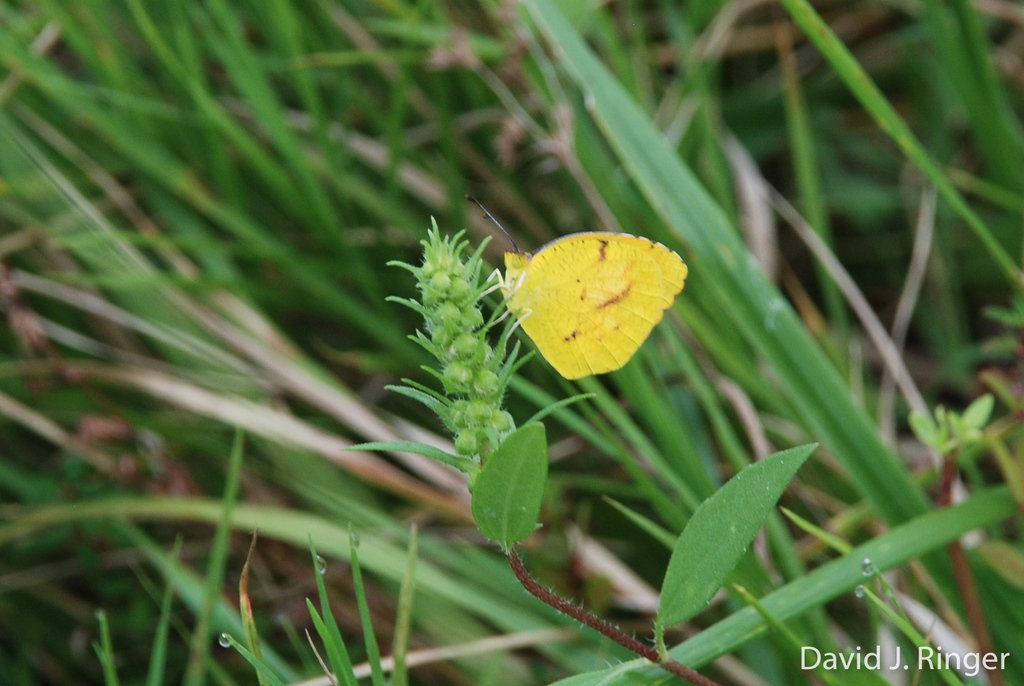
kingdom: Animalia
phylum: Arthropoda
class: Insecta
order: Lepidoptera
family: Pieridae
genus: Abaeis
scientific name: Abaeis nicippe
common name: Sleepy Orange
